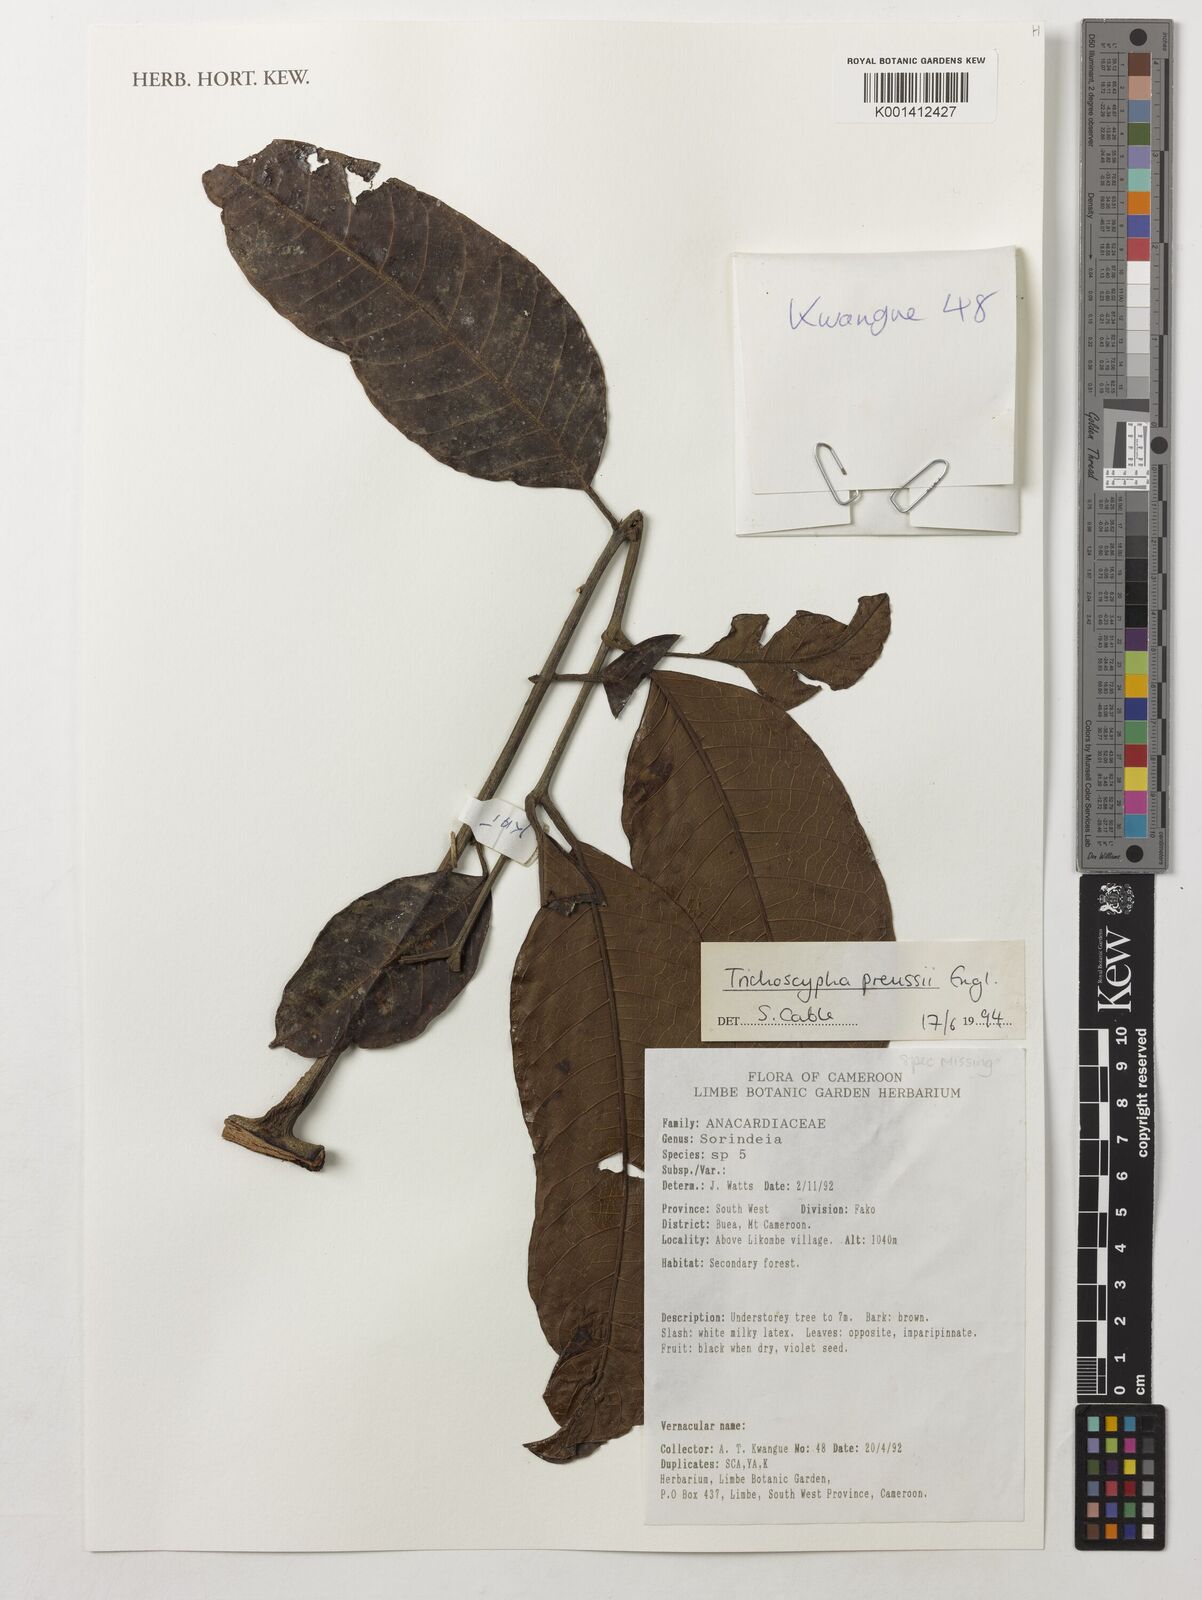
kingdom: Plantae
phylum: Tracheophyta
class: Magnoliopsida
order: Sapindales
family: Anacardiaceae
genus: Trichoscypha
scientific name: Trichoscypha bijuga
